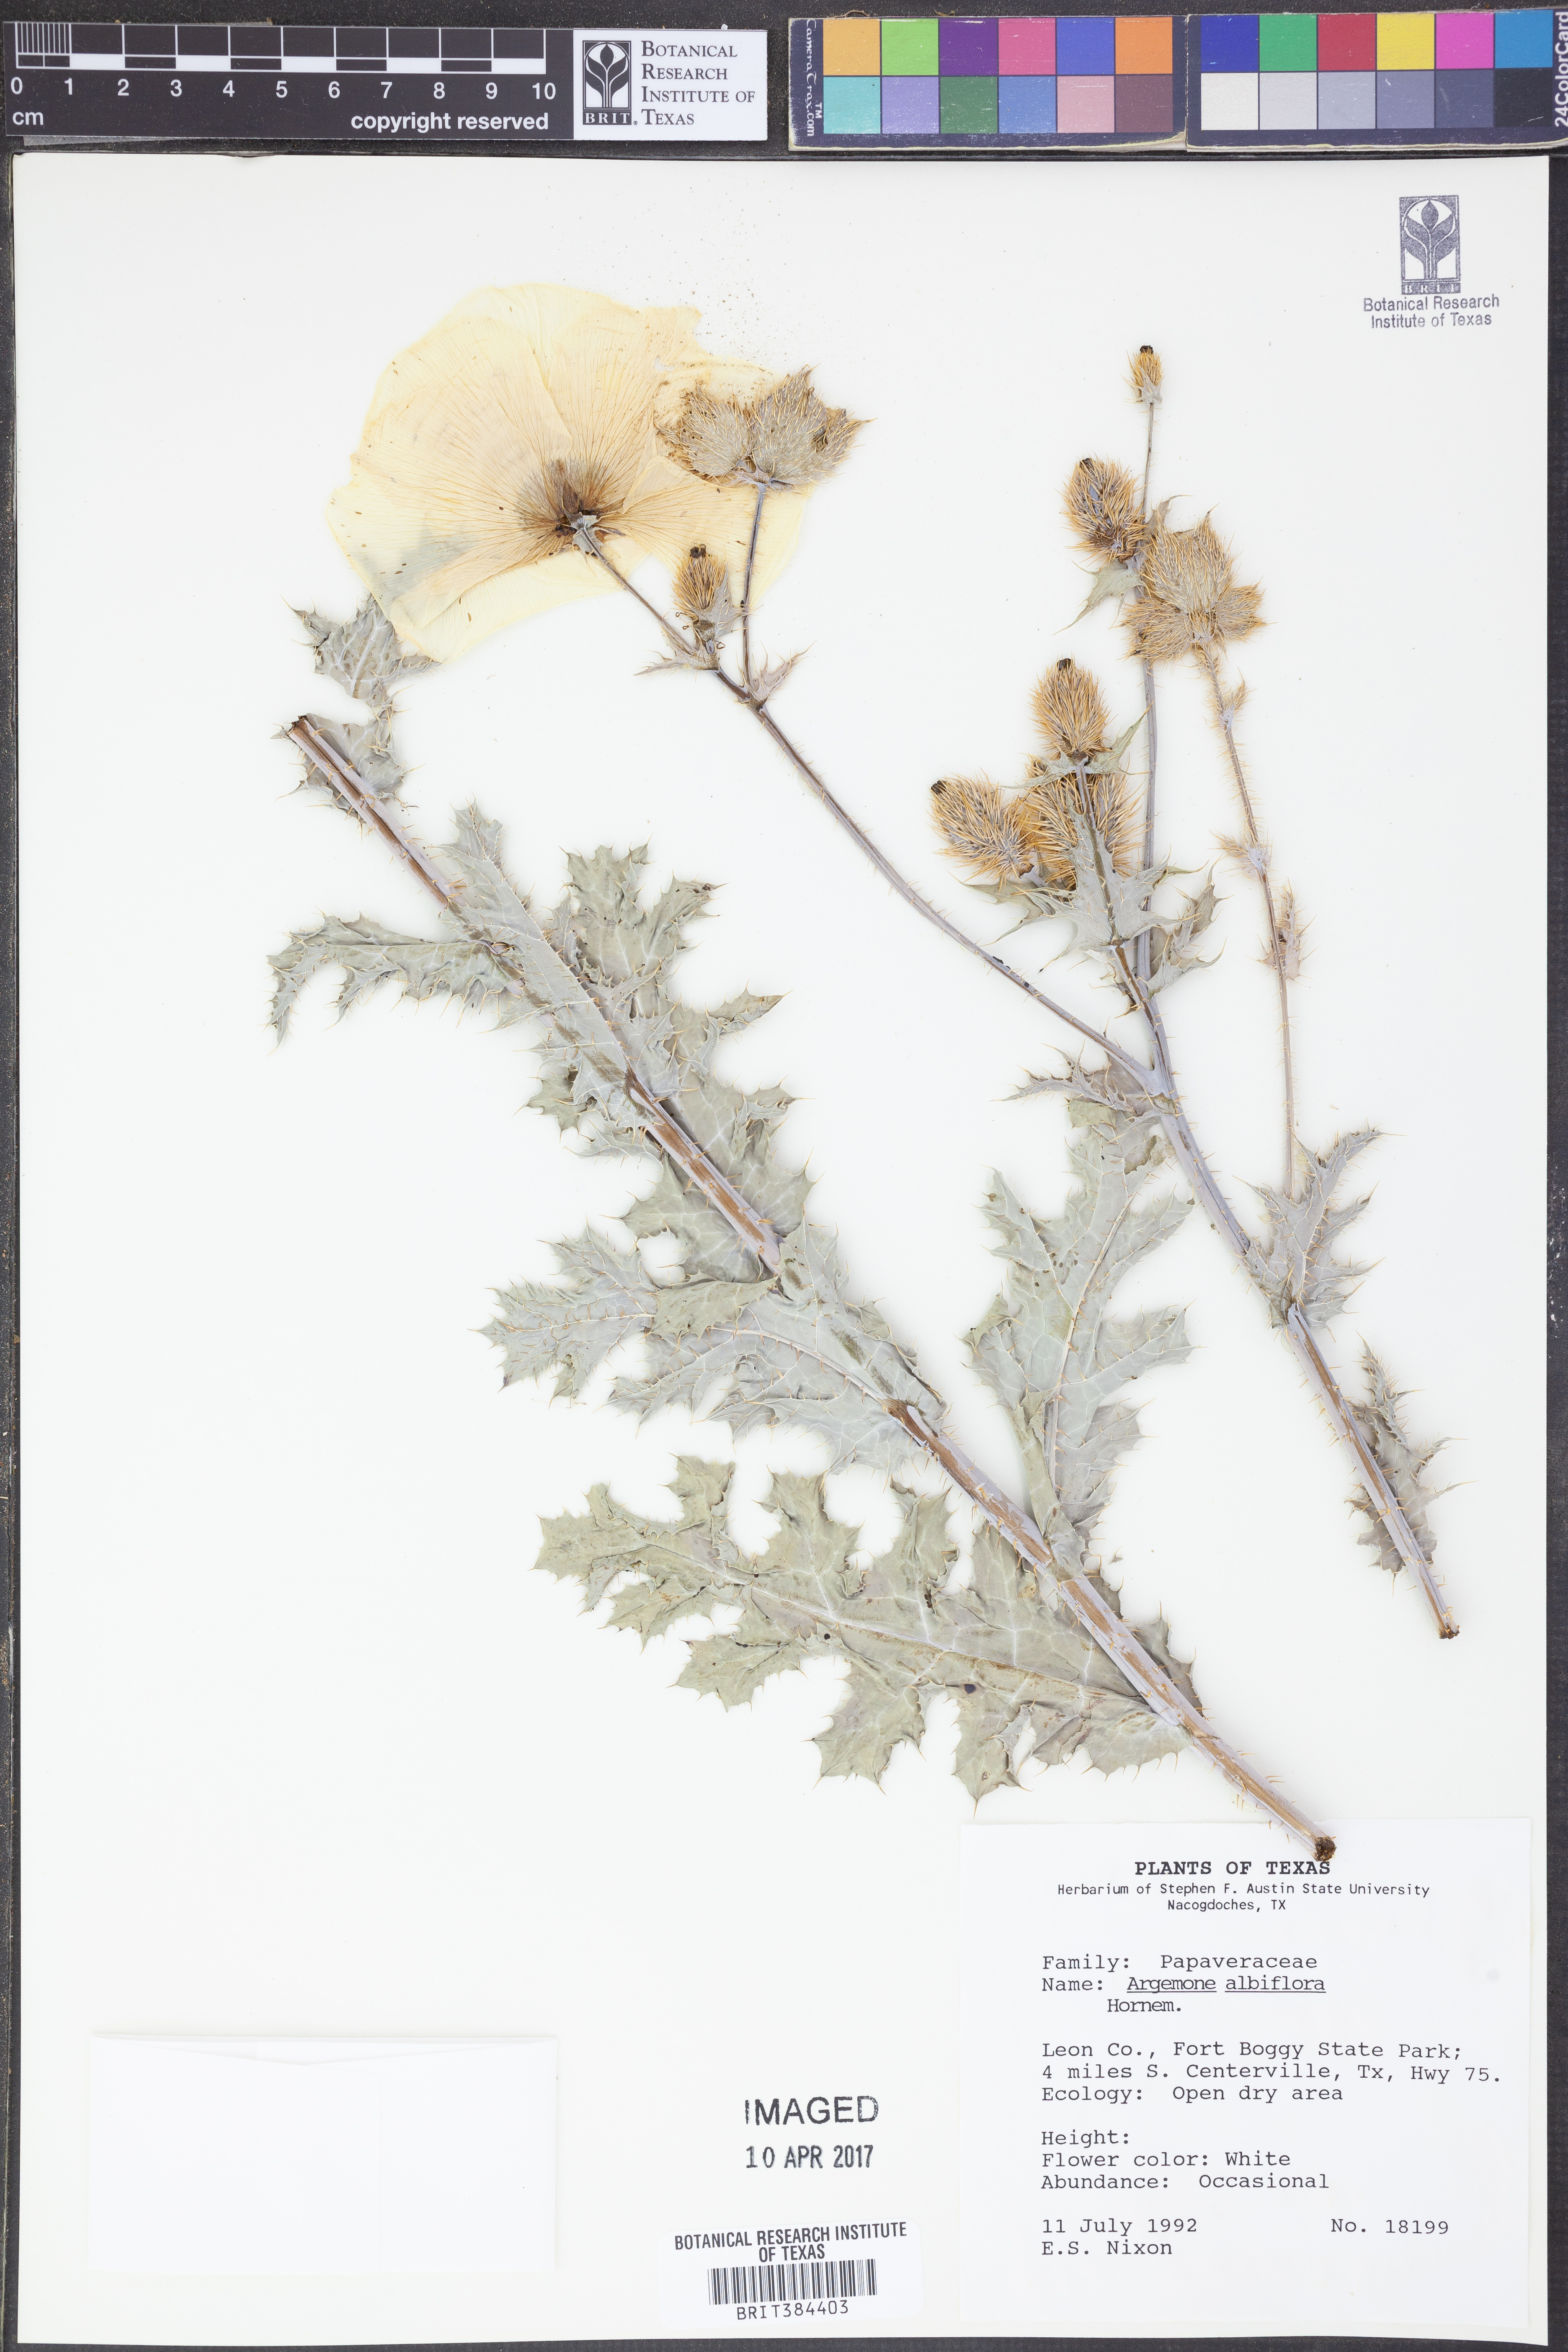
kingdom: Plantae
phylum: Tracheophyta
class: Magnoliopsida
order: Ranunculales
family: Papaveraceae
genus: Argemone
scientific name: Argemone albiflora
